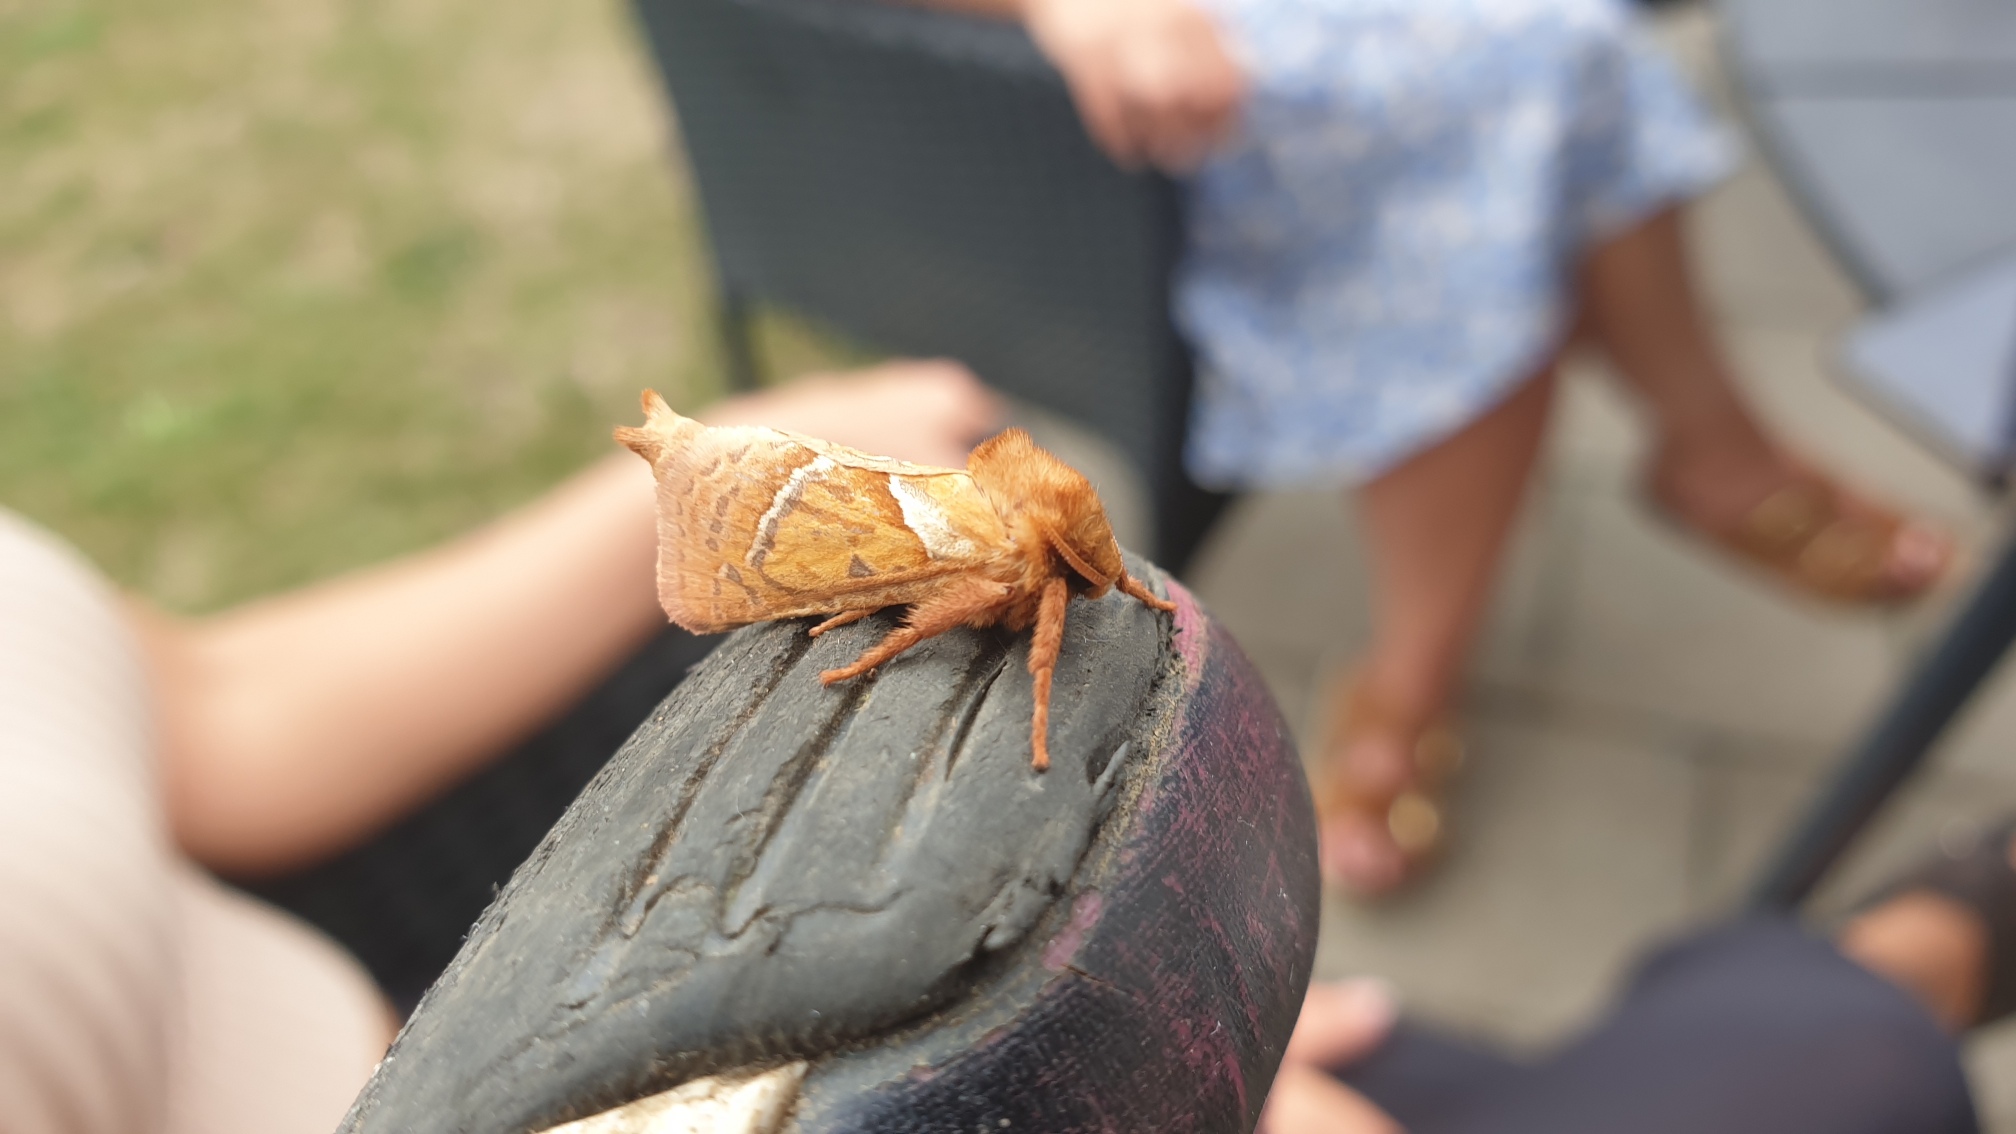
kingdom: Animalia
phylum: Arthropoda
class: Insecta
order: Lepidoptera
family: Hepialidae
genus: Triodia
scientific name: Triodia sylvina
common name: Skræpperodæder
